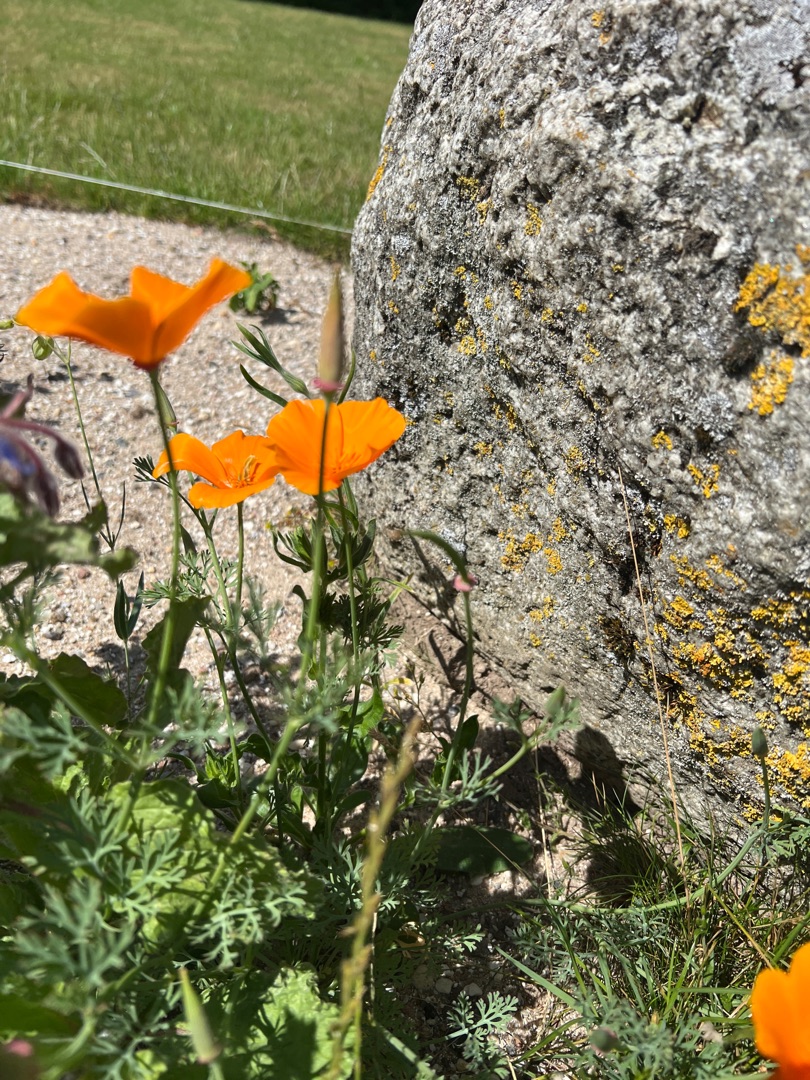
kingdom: Plantae
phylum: Tracheophyta
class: Magnoliopsida
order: Ranunculales
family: Papaveraceae
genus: Eschscholzia
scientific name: Eschscholzia californica
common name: Guldvalmue
